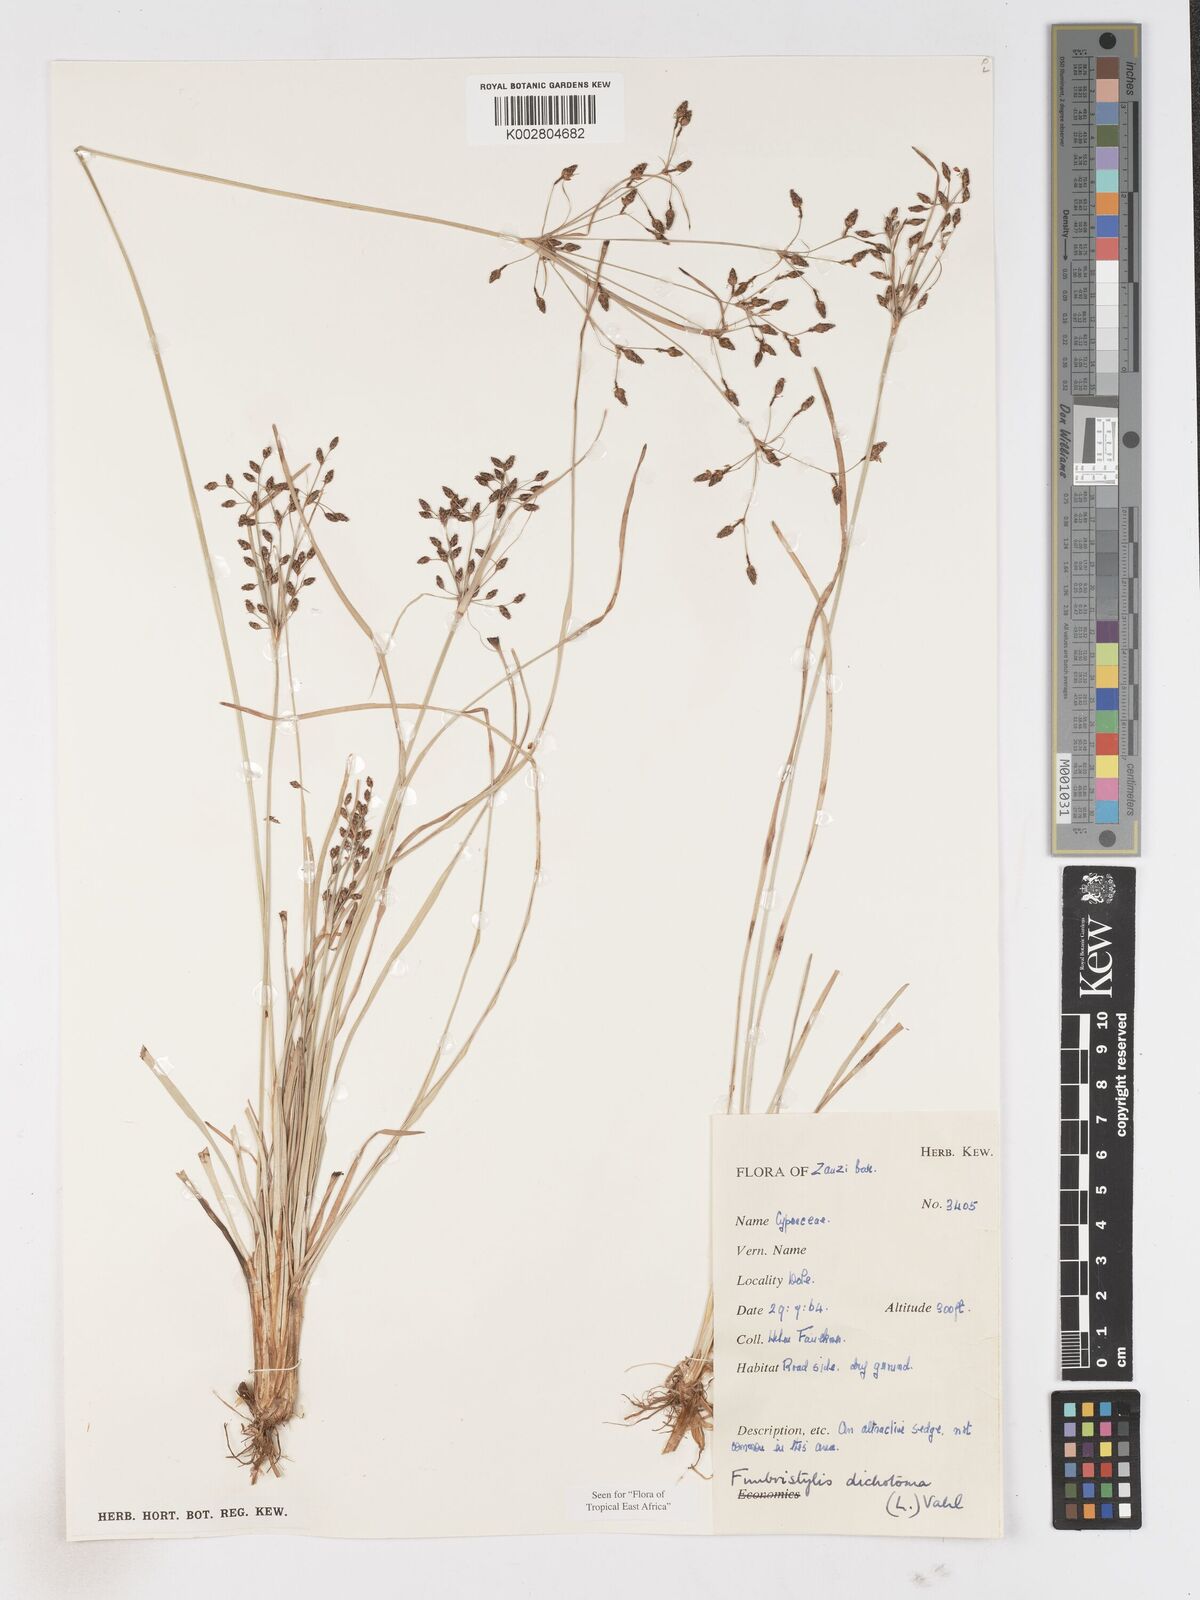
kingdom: Plantae
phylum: Tracheophyta
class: Liliopsida
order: Poales
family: Cyperaceae
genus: Fimbristylis
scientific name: Fimbristylis dichotoma
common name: Forked fimbry
